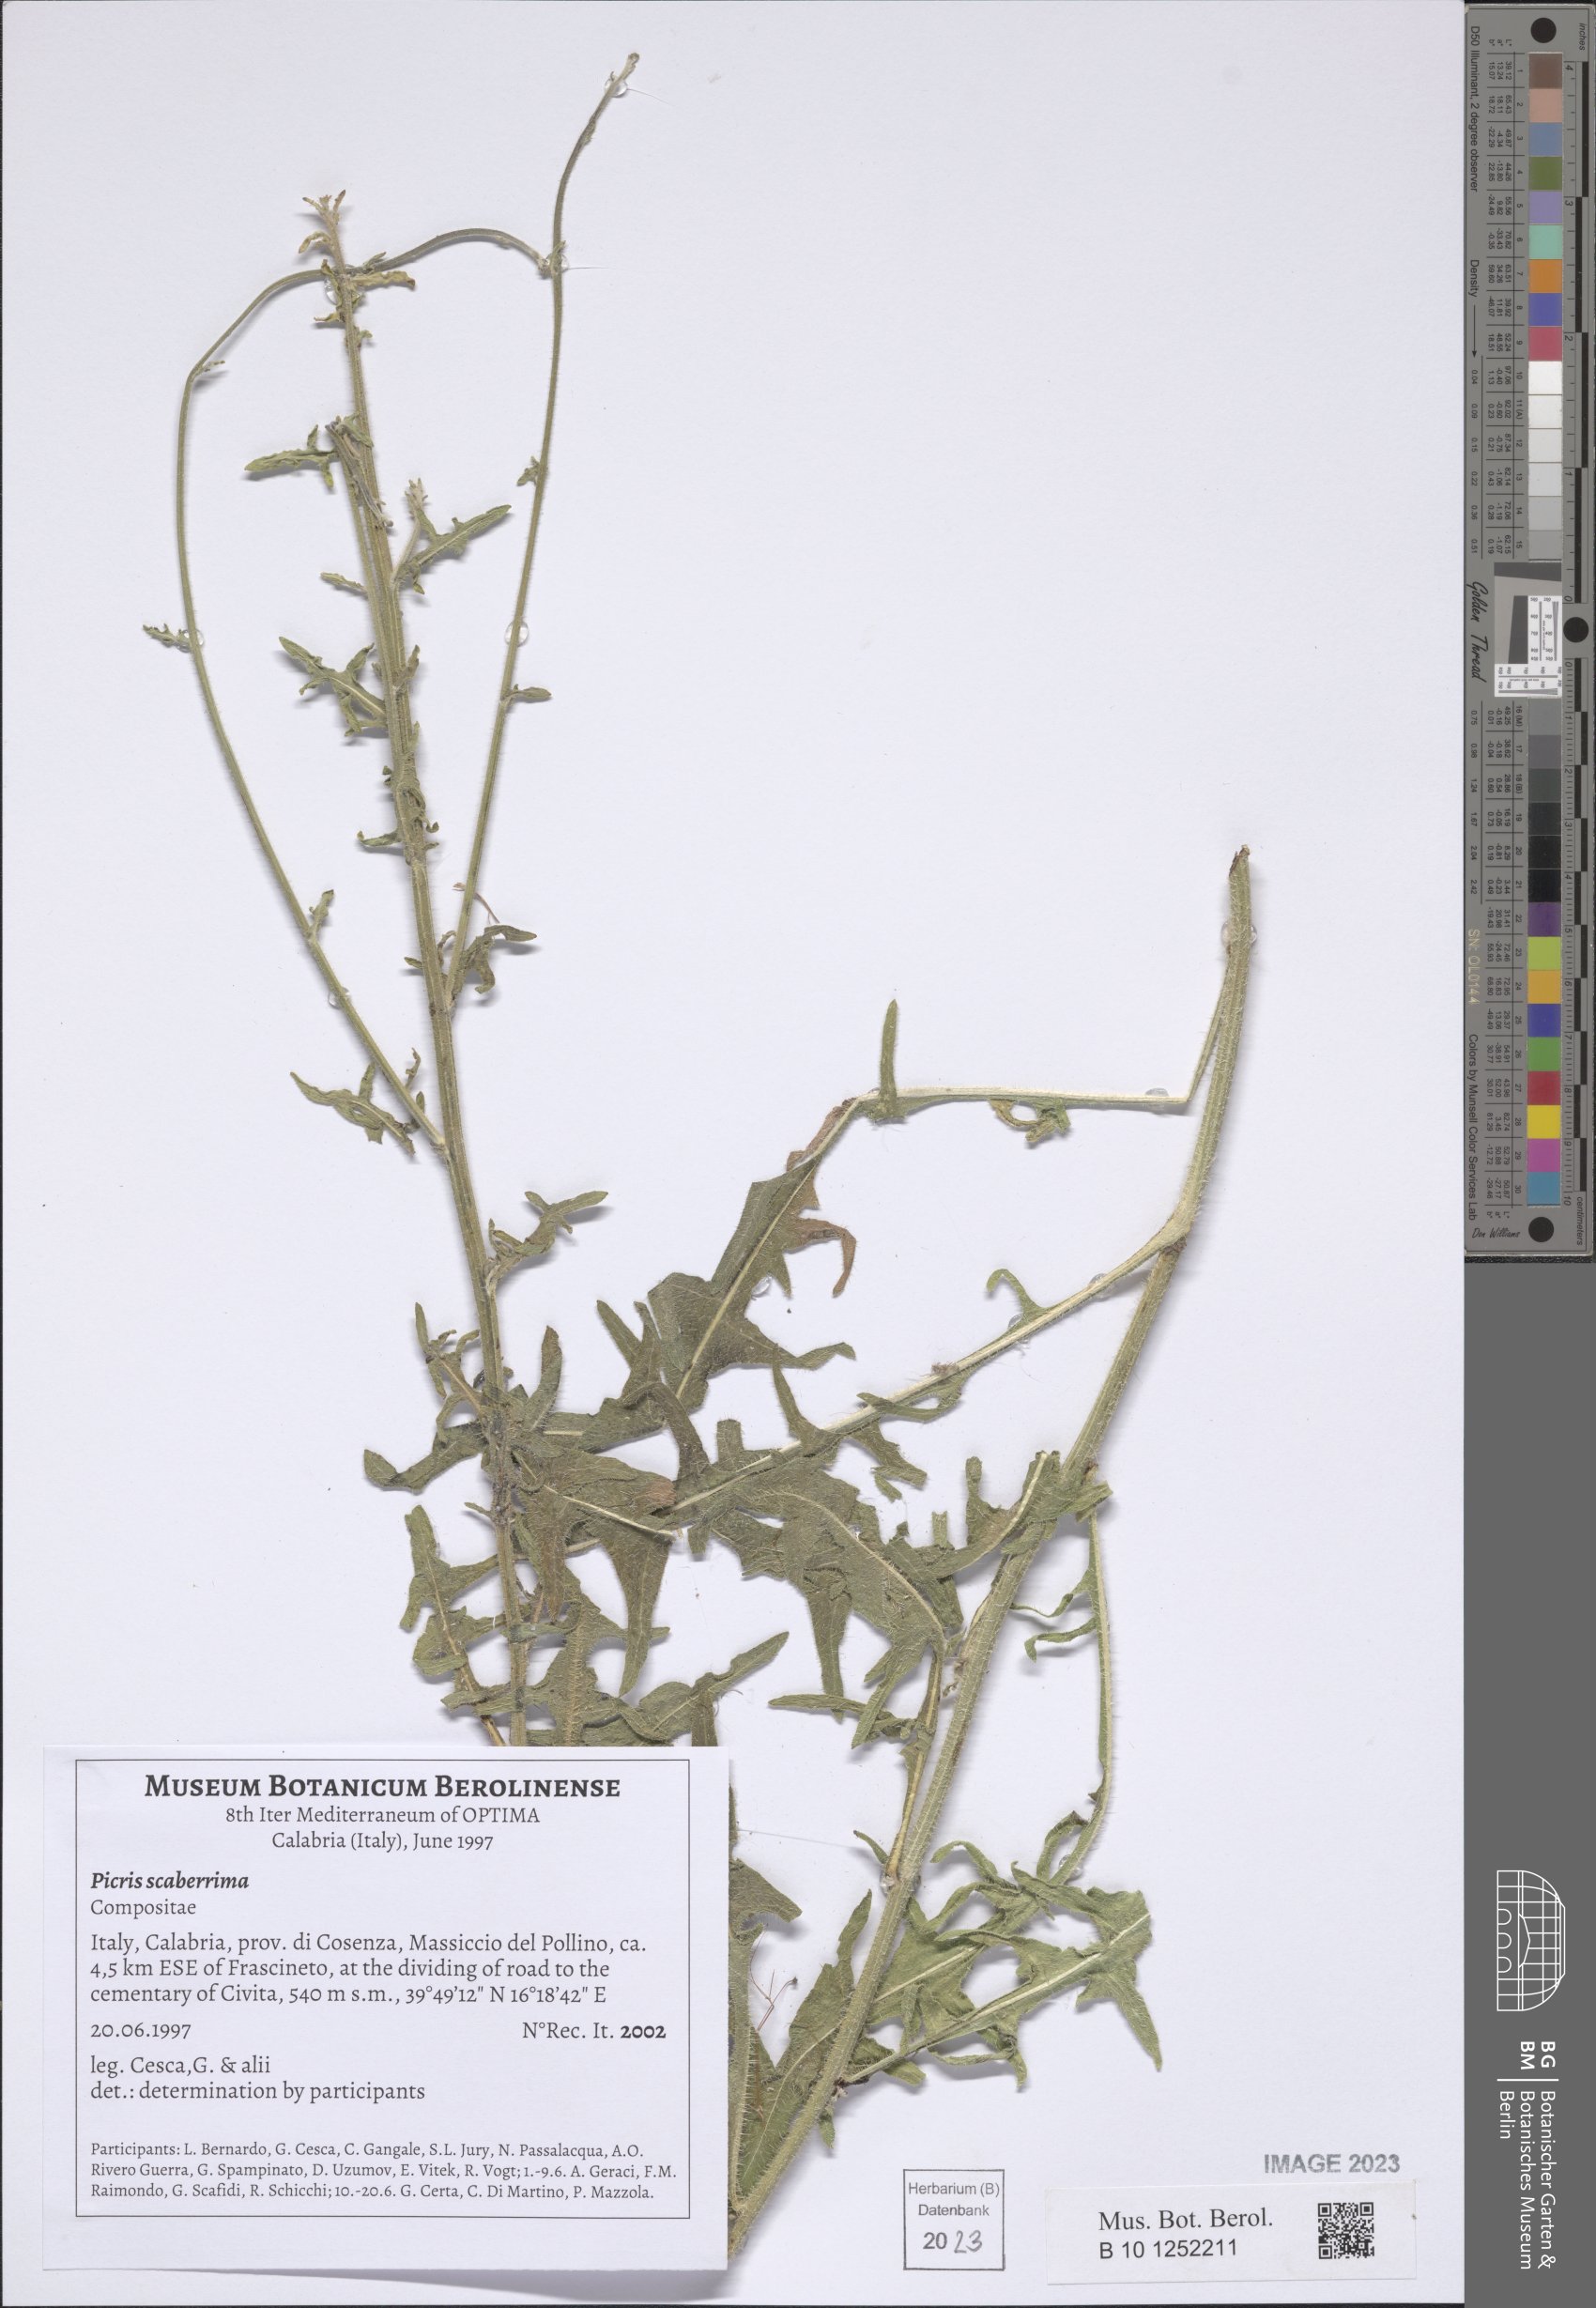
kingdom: Plantae
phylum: Tracheophyta
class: Magnoliopsida
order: Asterales
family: Asteraceae
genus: Picris
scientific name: Picris scaberrima
